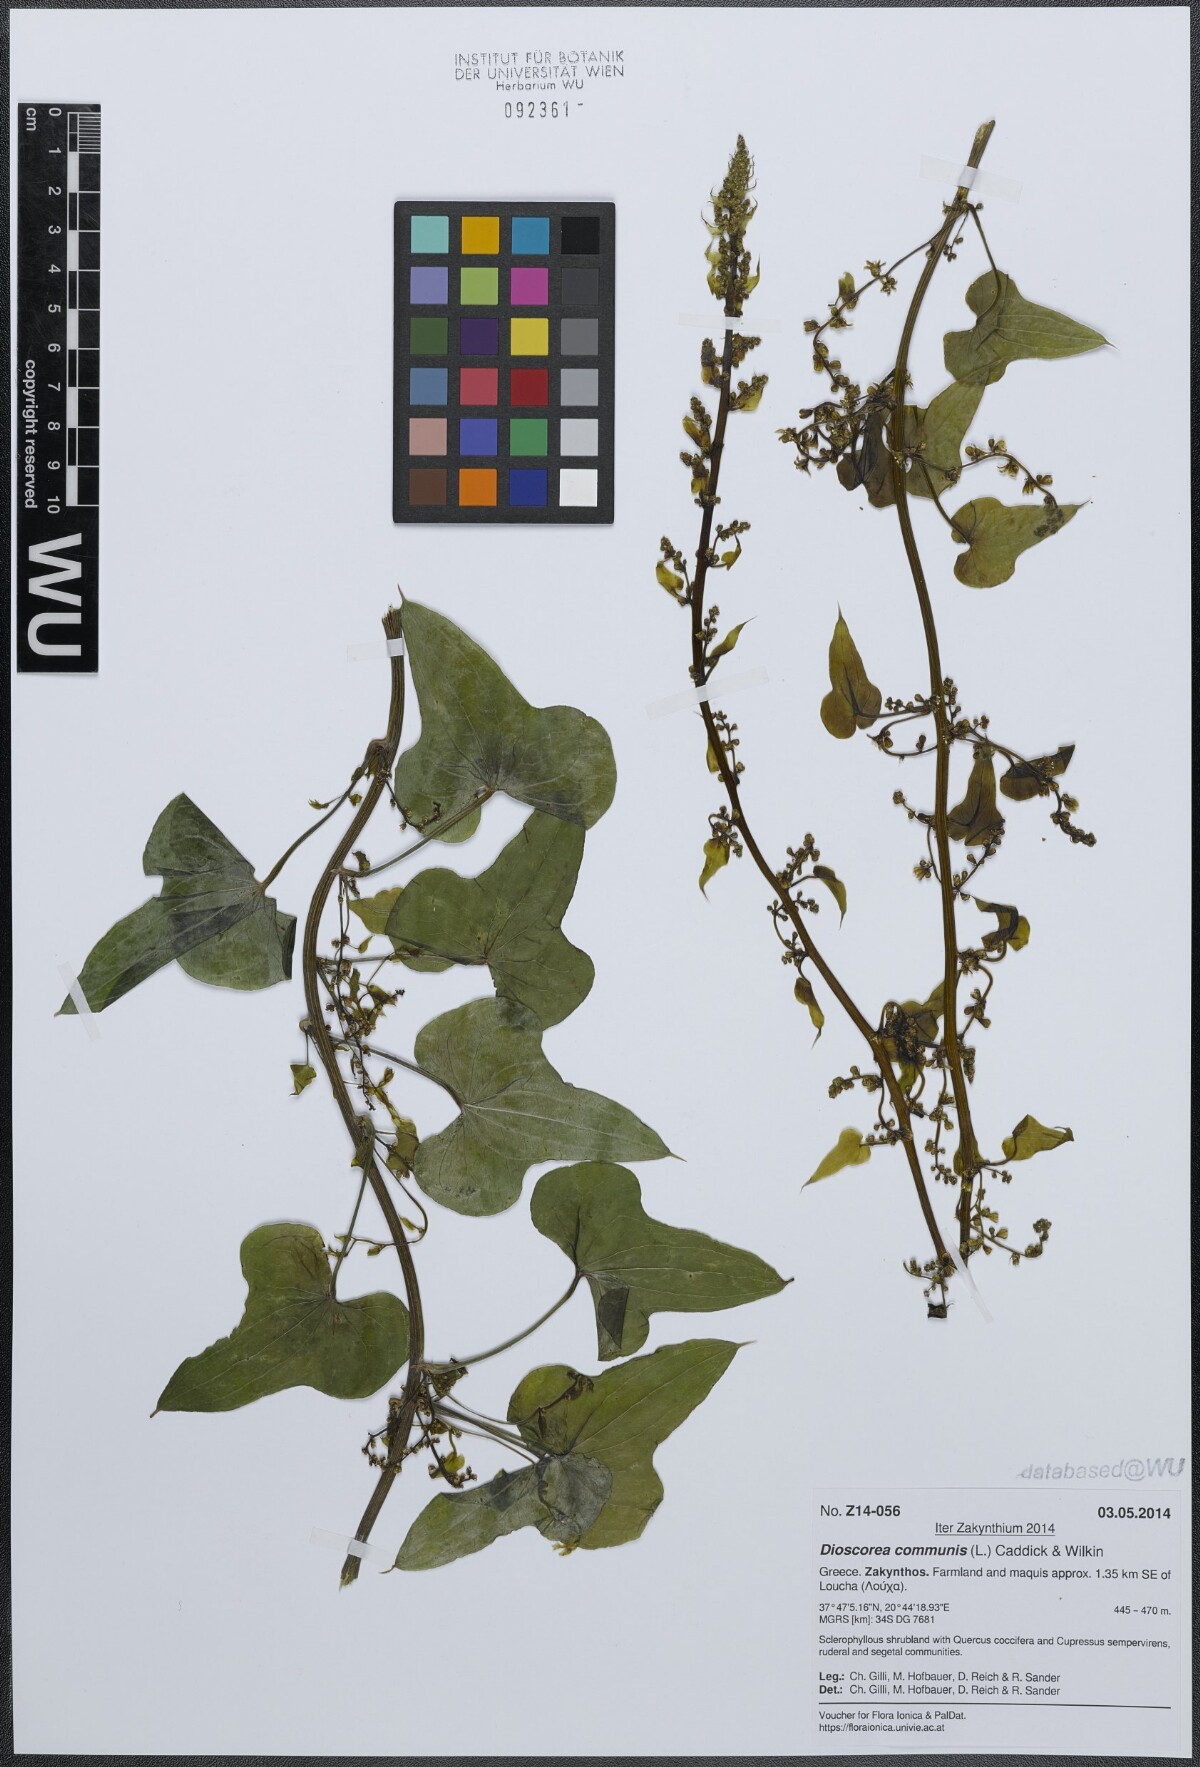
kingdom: Plantae
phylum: Tracheophyta
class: Liliopsida
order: Dioscoreales
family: Dioscoreaceae
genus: Dioscorea
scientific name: Dioscorea communis
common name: Black-bindweed
